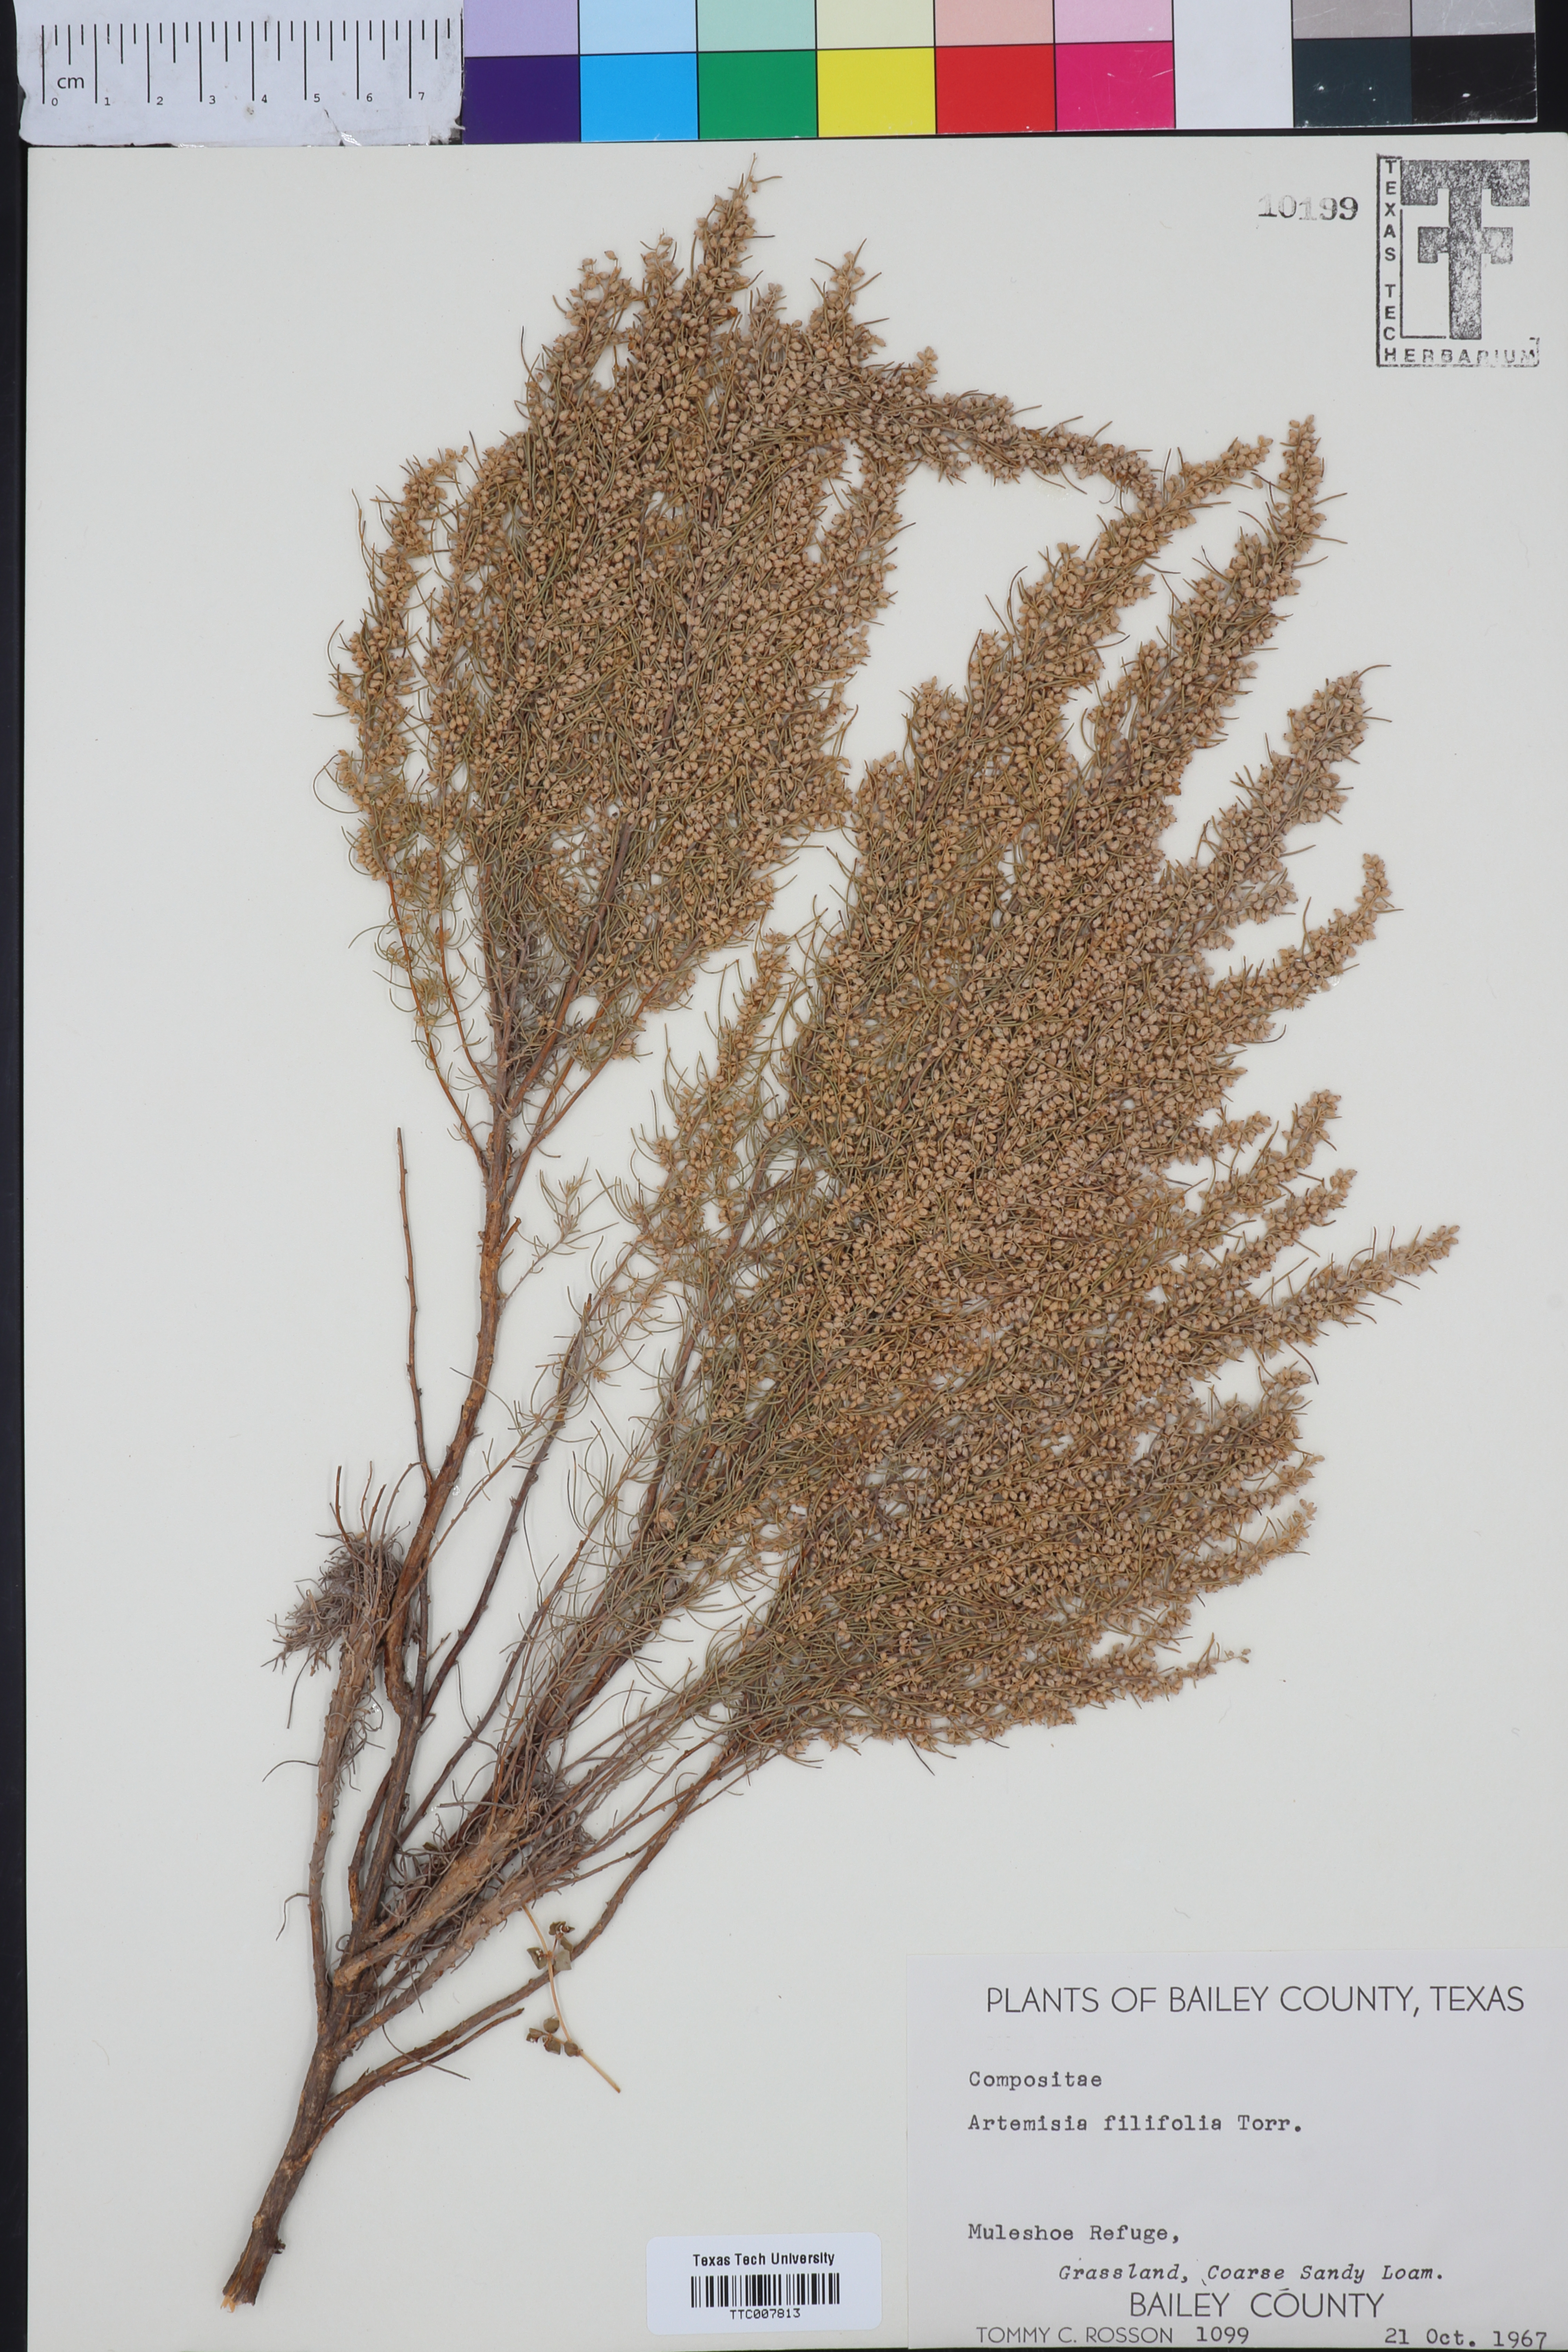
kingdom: Plantae
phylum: Tracheophyta
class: Magnoliopsida
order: Asterales
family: Asteraceae
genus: Artemisia
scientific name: Artemisia filifolia
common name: Sand-sage
